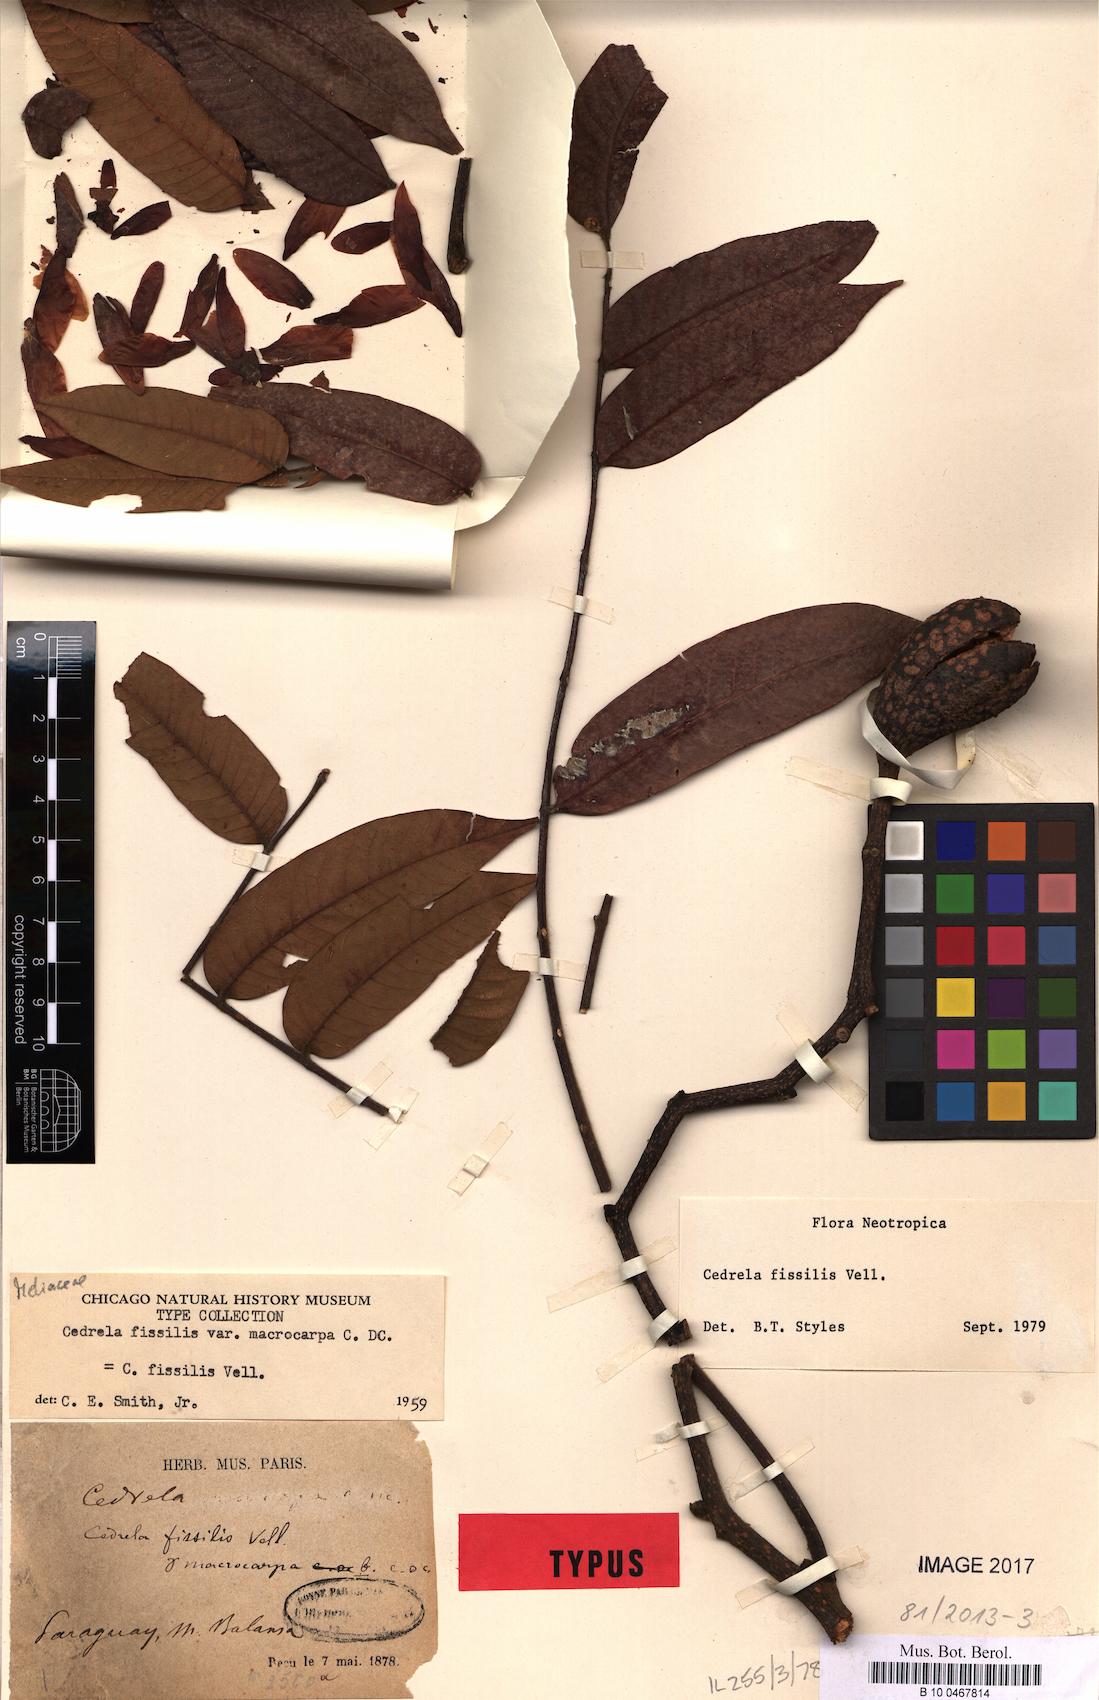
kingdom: Plantae
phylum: Tracheophyta
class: Magnoliopsida
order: Sapindales
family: Meliaceae
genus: Cedrela
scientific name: Cedrela fissilis
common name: Argentine cedar
